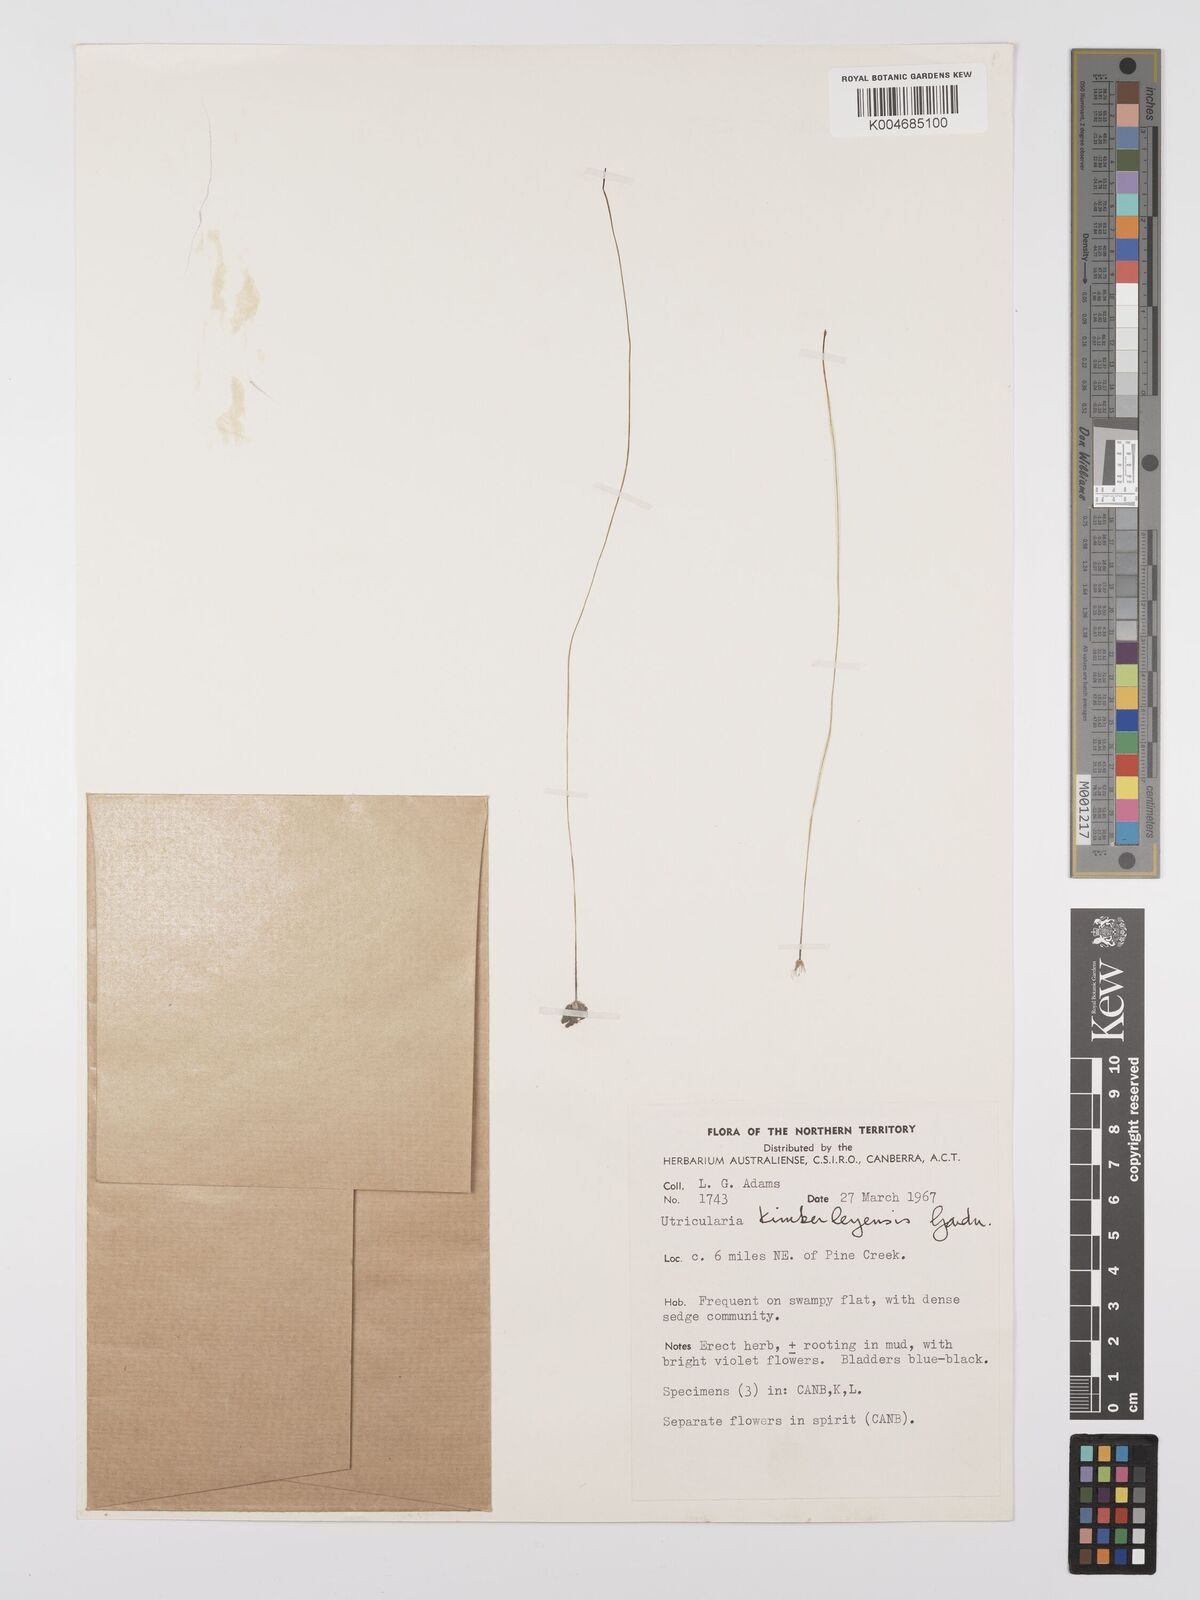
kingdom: Plantae
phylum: Tracheophyta
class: Magnoliopsida
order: Lamiales
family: Lentibulariaceae
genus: Utricularia
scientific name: Utricularia kimberleyensis
